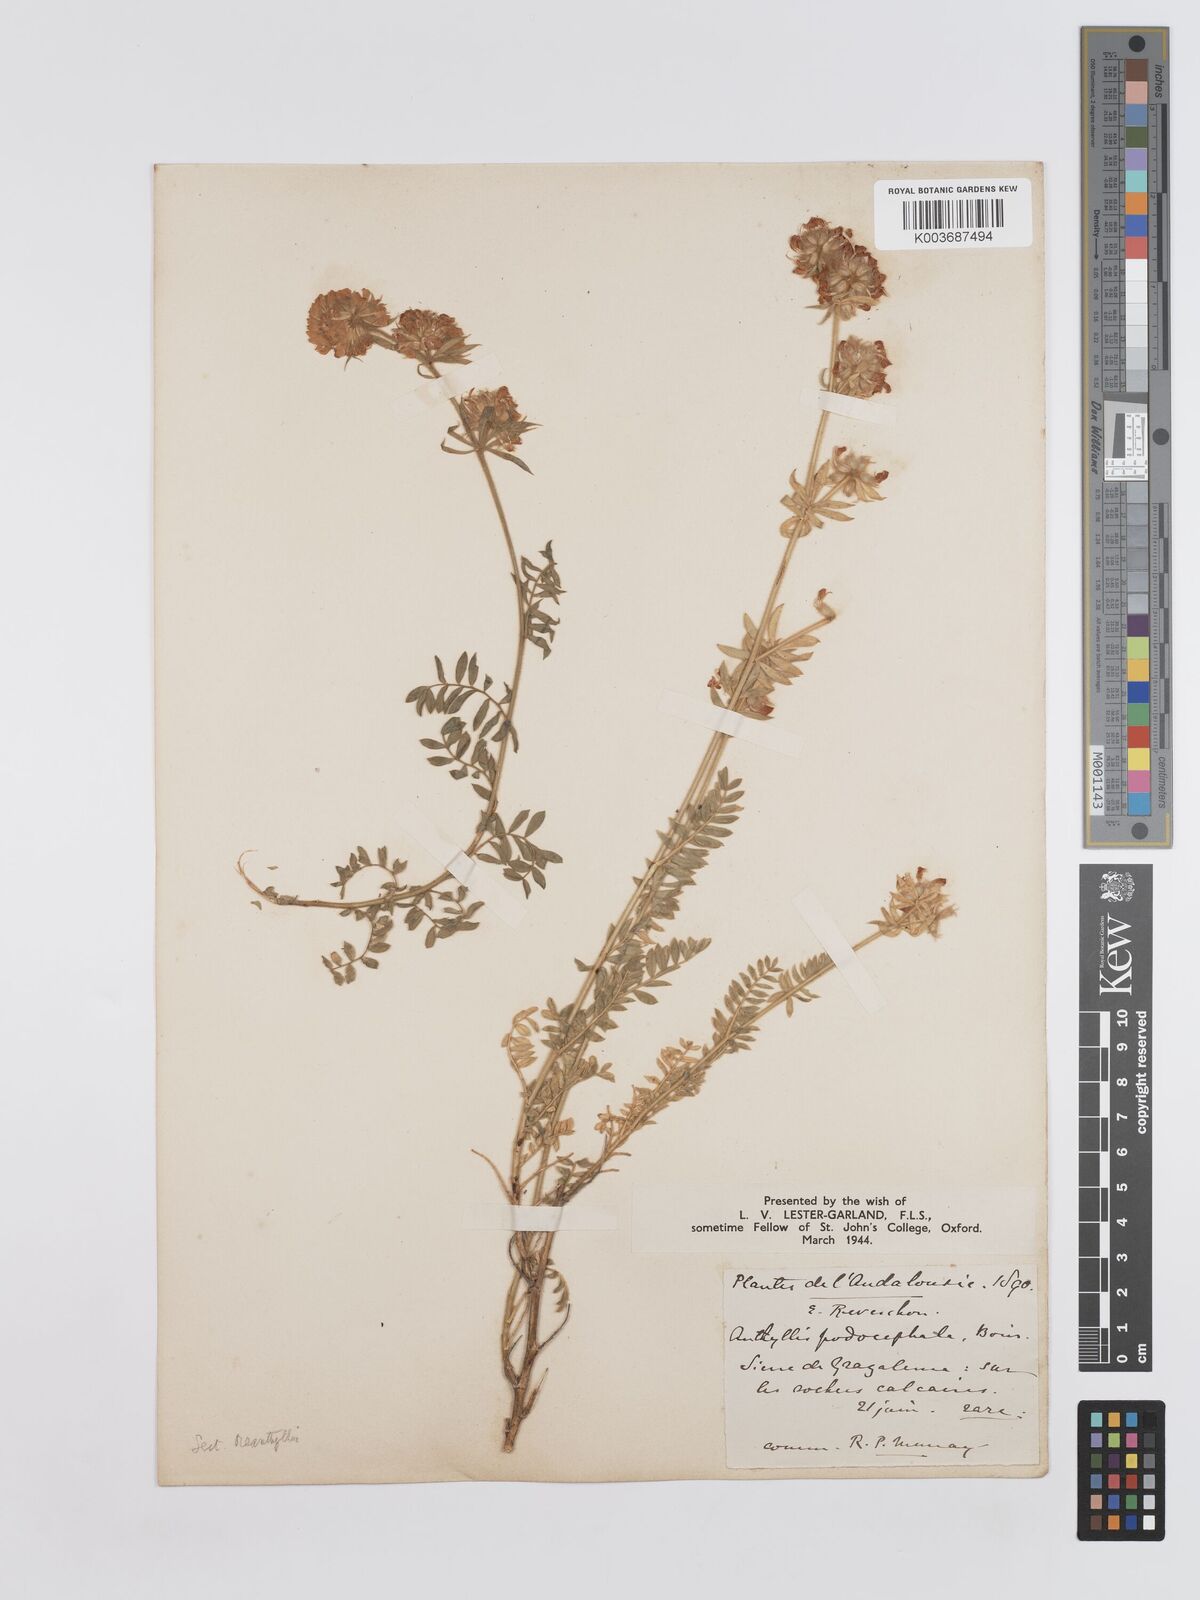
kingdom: Plantae
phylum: Tracheophyta
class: Magnoliopsida
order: Fabales
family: Fabaceae
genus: Anthyllis
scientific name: Anthyllis polycephala
